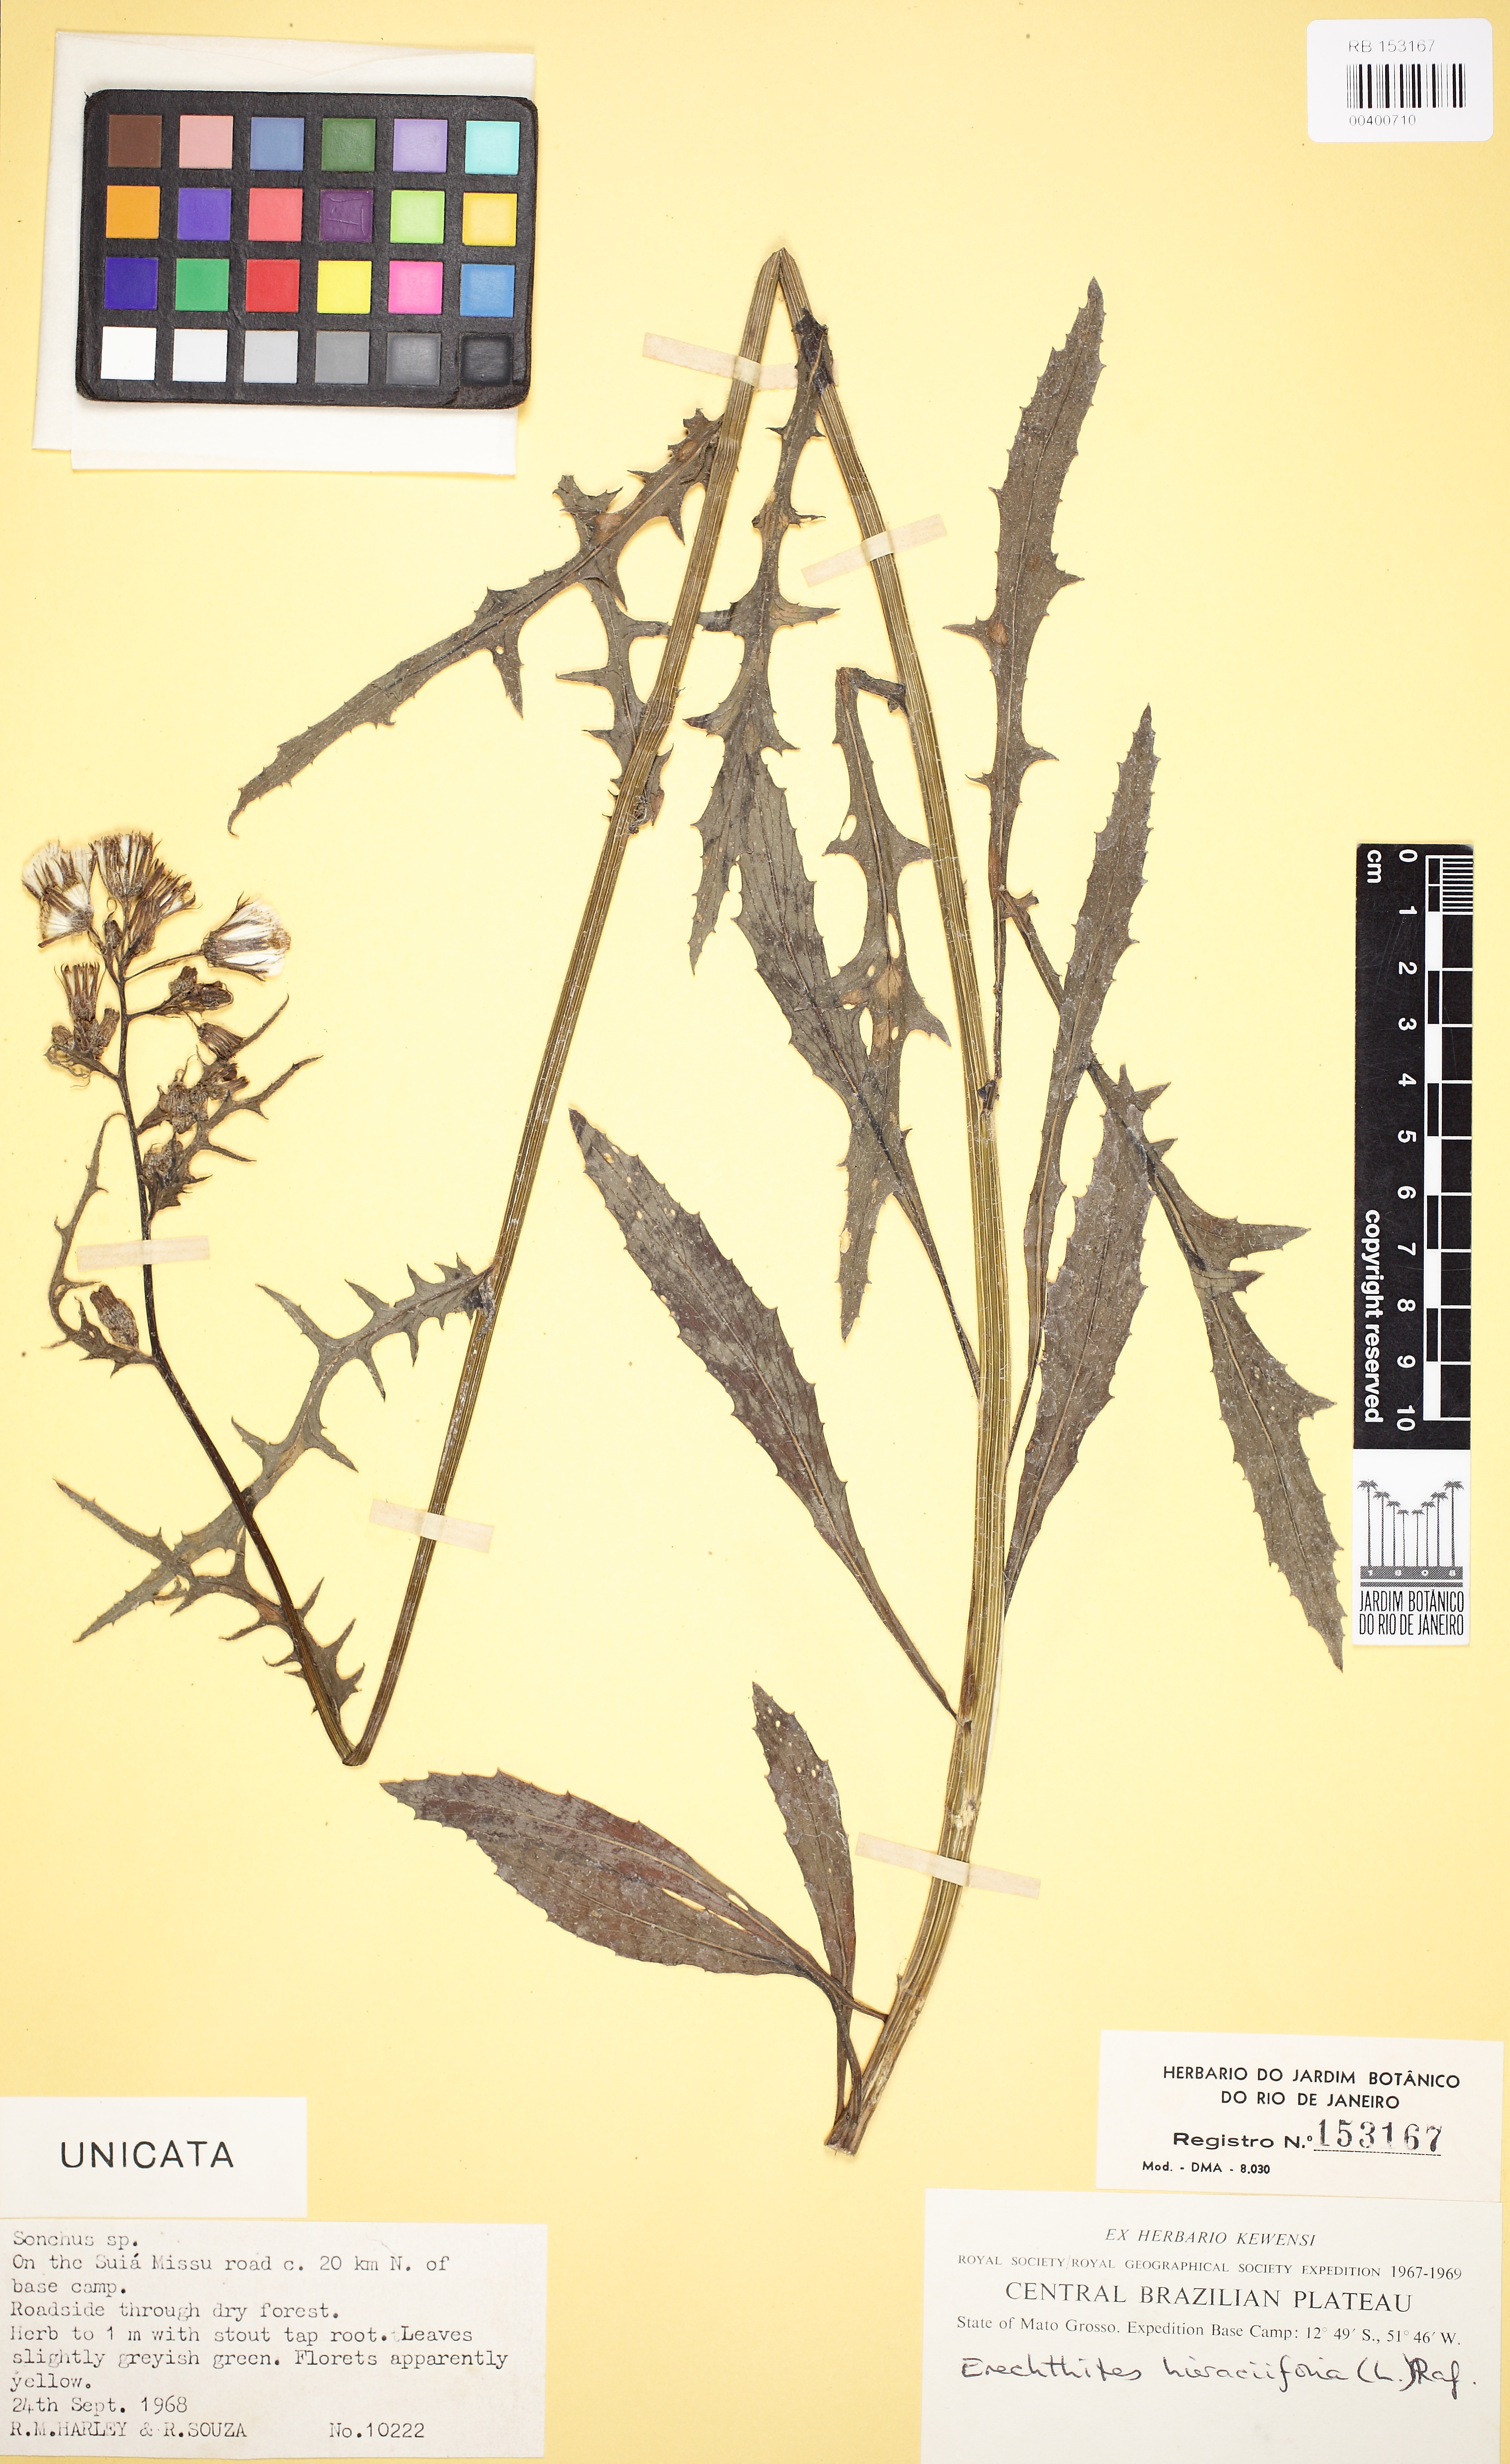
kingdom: Plantae
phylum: Tracheophyta
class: Magnoliopsida
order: Asterales
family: Asteraceae
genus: Erechtites
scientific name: Erechtites hieraciifolius
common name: American burnweed
